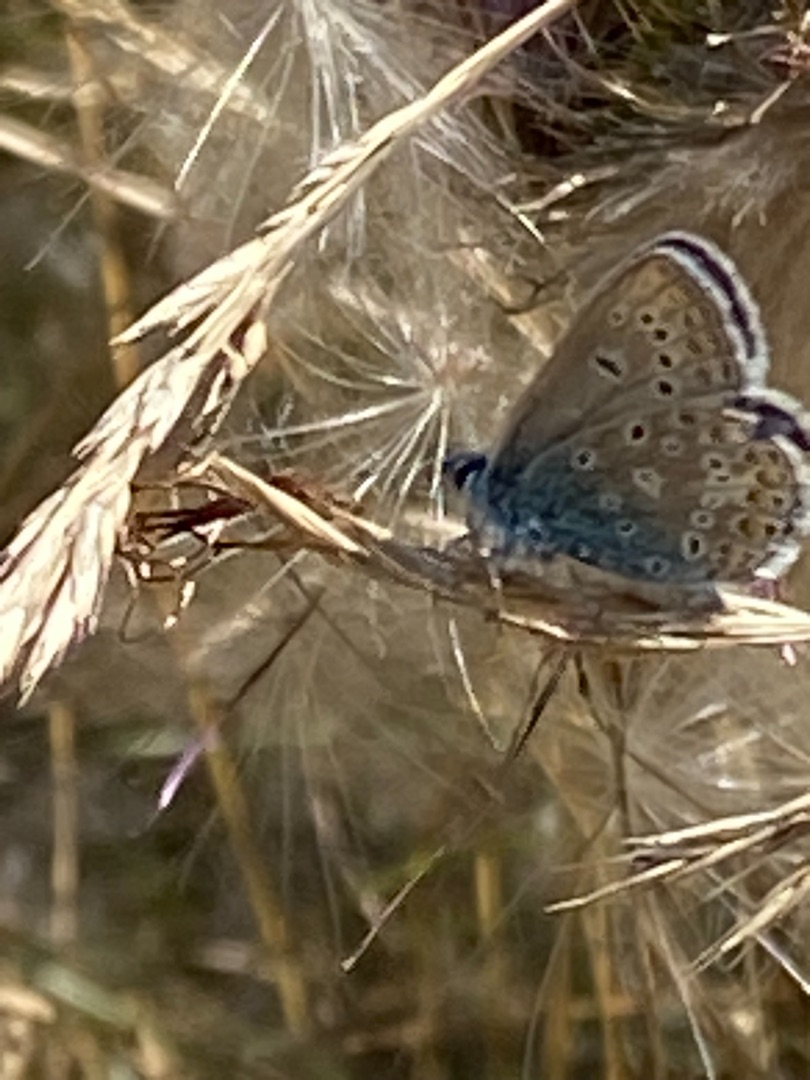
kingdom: Animalia
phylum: Arthropoda
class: Insecta
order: Lepidoptera
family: Lycaenidae
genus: Polyommatus
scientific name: Polyommatus icarus
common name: Almindelig blåfugl
